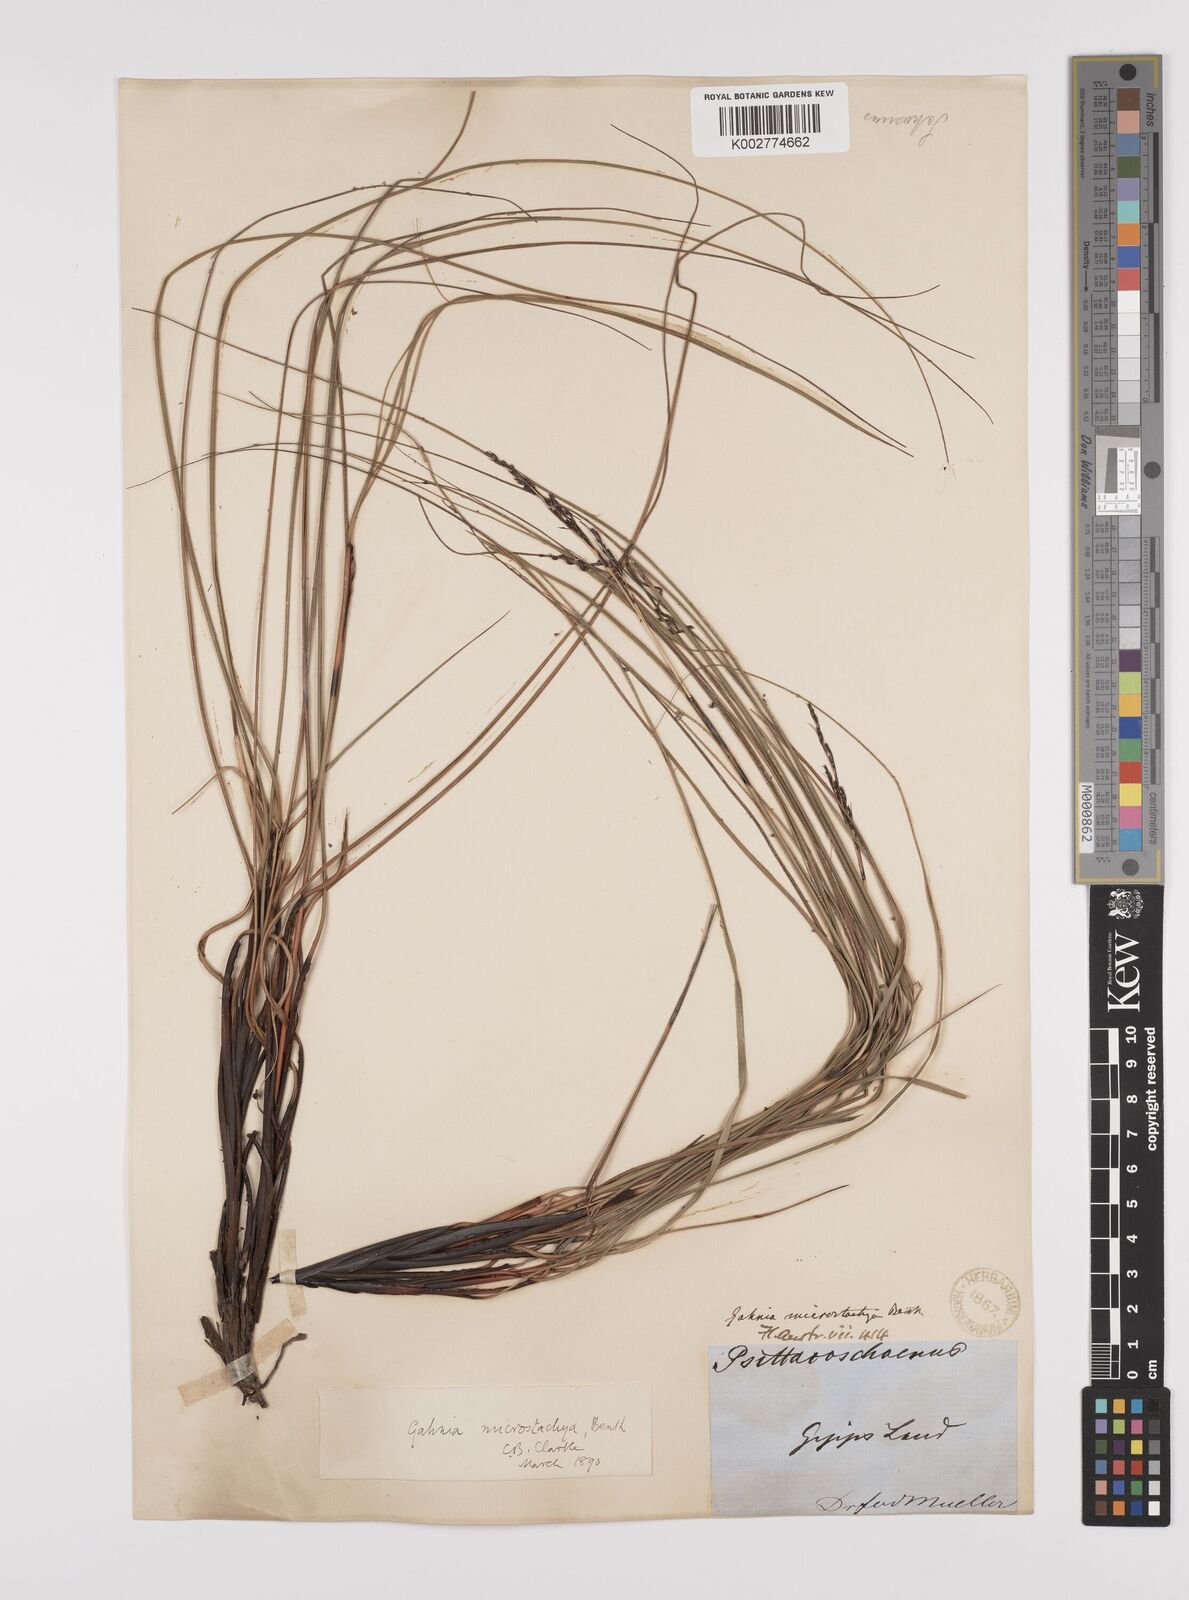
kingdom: Plantae
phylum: Tracheophyta
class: Liliopsida
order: Poales
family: Cyperaceae
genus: Gahnia
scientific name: Gahnia microstachya
